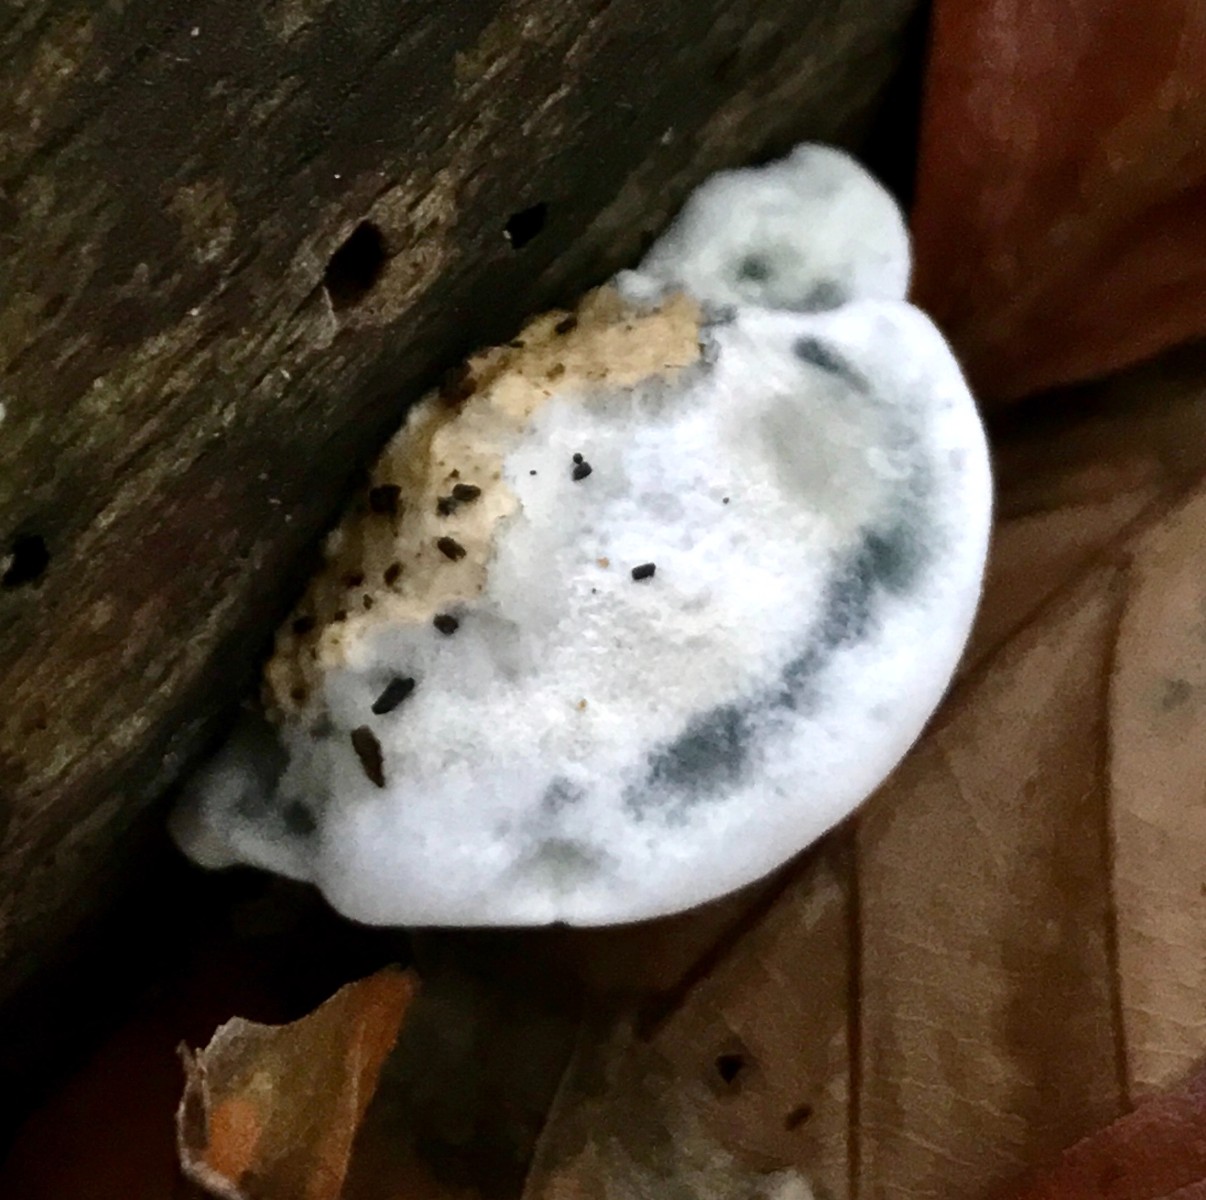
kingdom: Fungi
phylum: Basidiomycota
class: Agaricomycetes
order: Polyporales
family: Polyporaceae
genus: Cyanosporus
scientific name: Cyanosporus alni
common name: blegblå kødporesvamp
